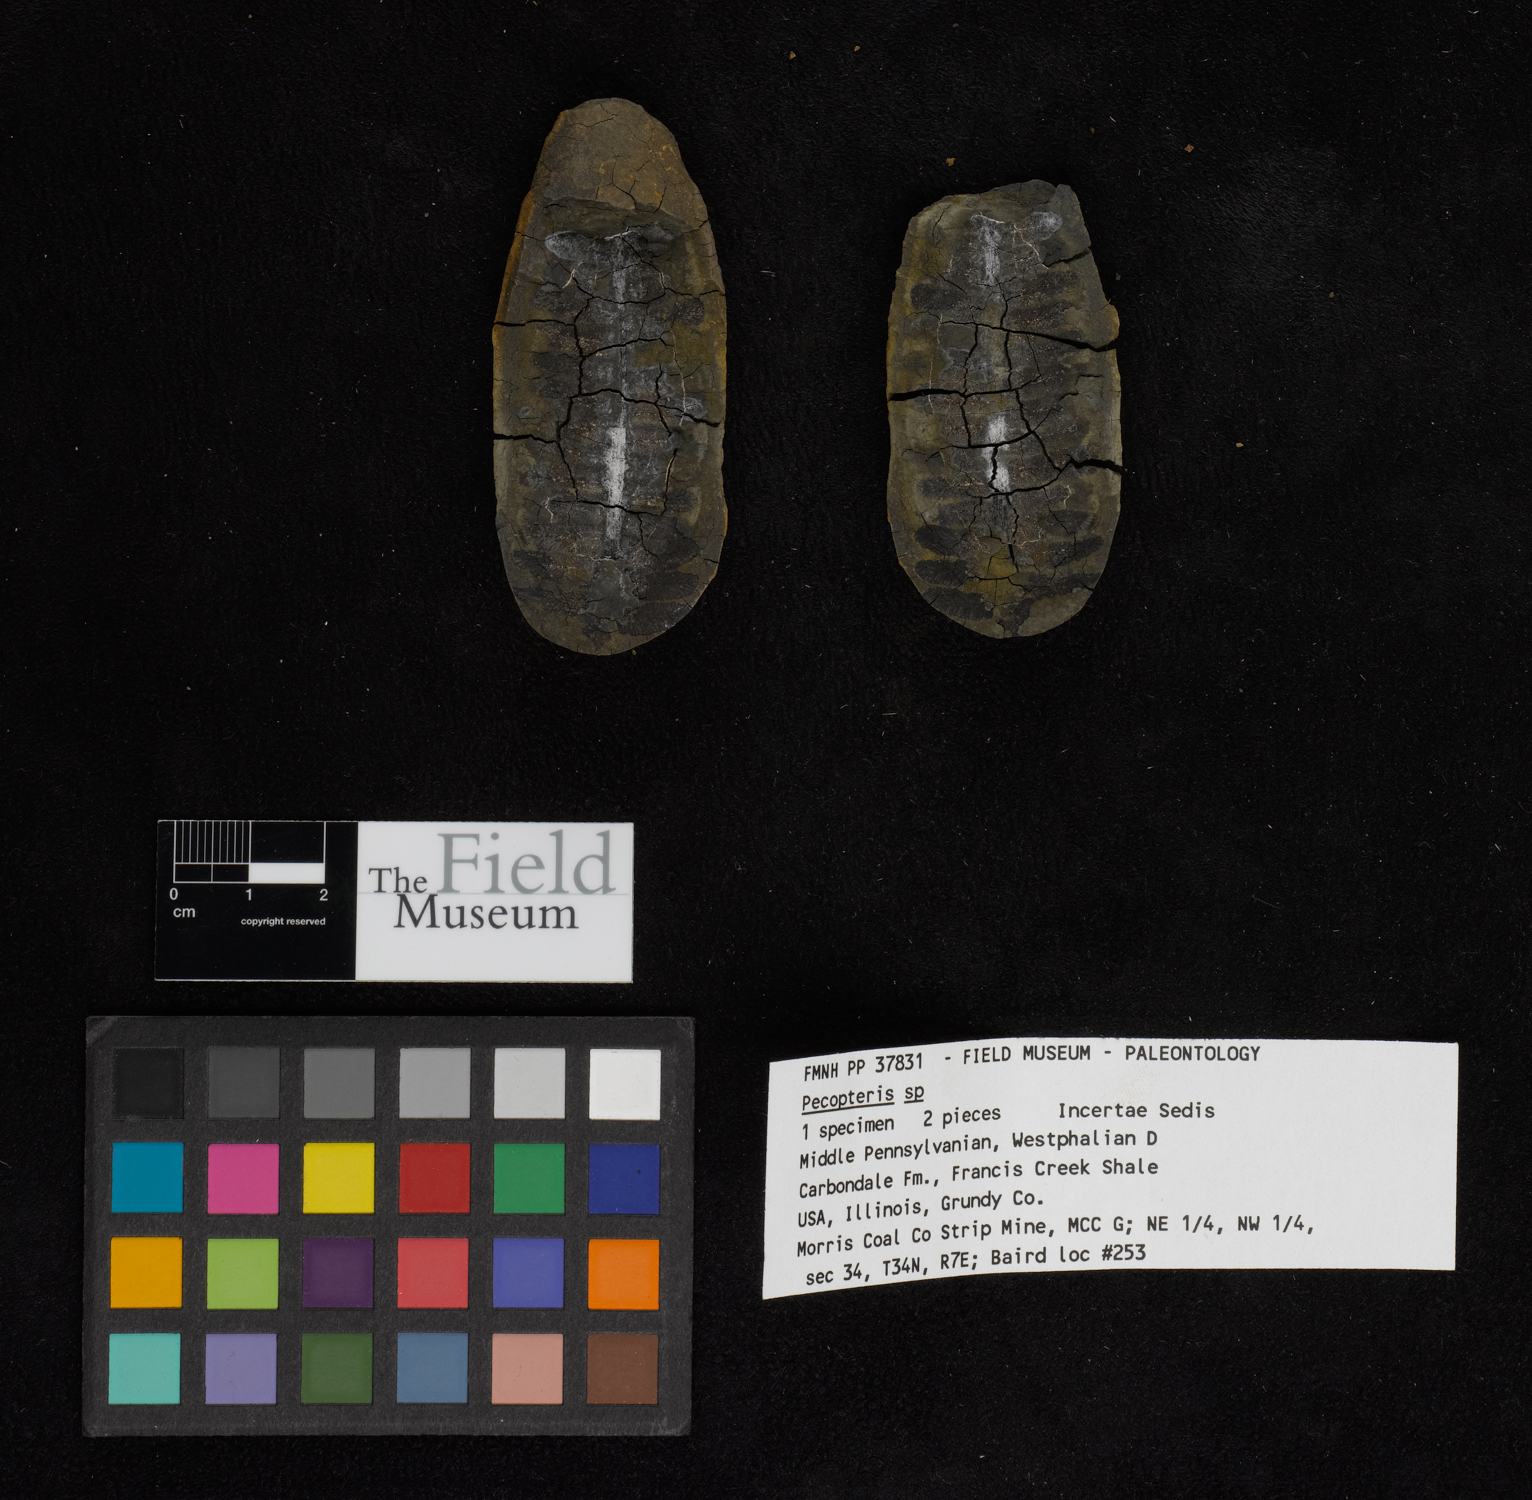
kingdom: Plantae
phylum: Tracheophyta
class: Polypodiopsida
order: Marattiales
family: Asterothecaceae
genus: Pecopteris
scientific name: Pecopteris
